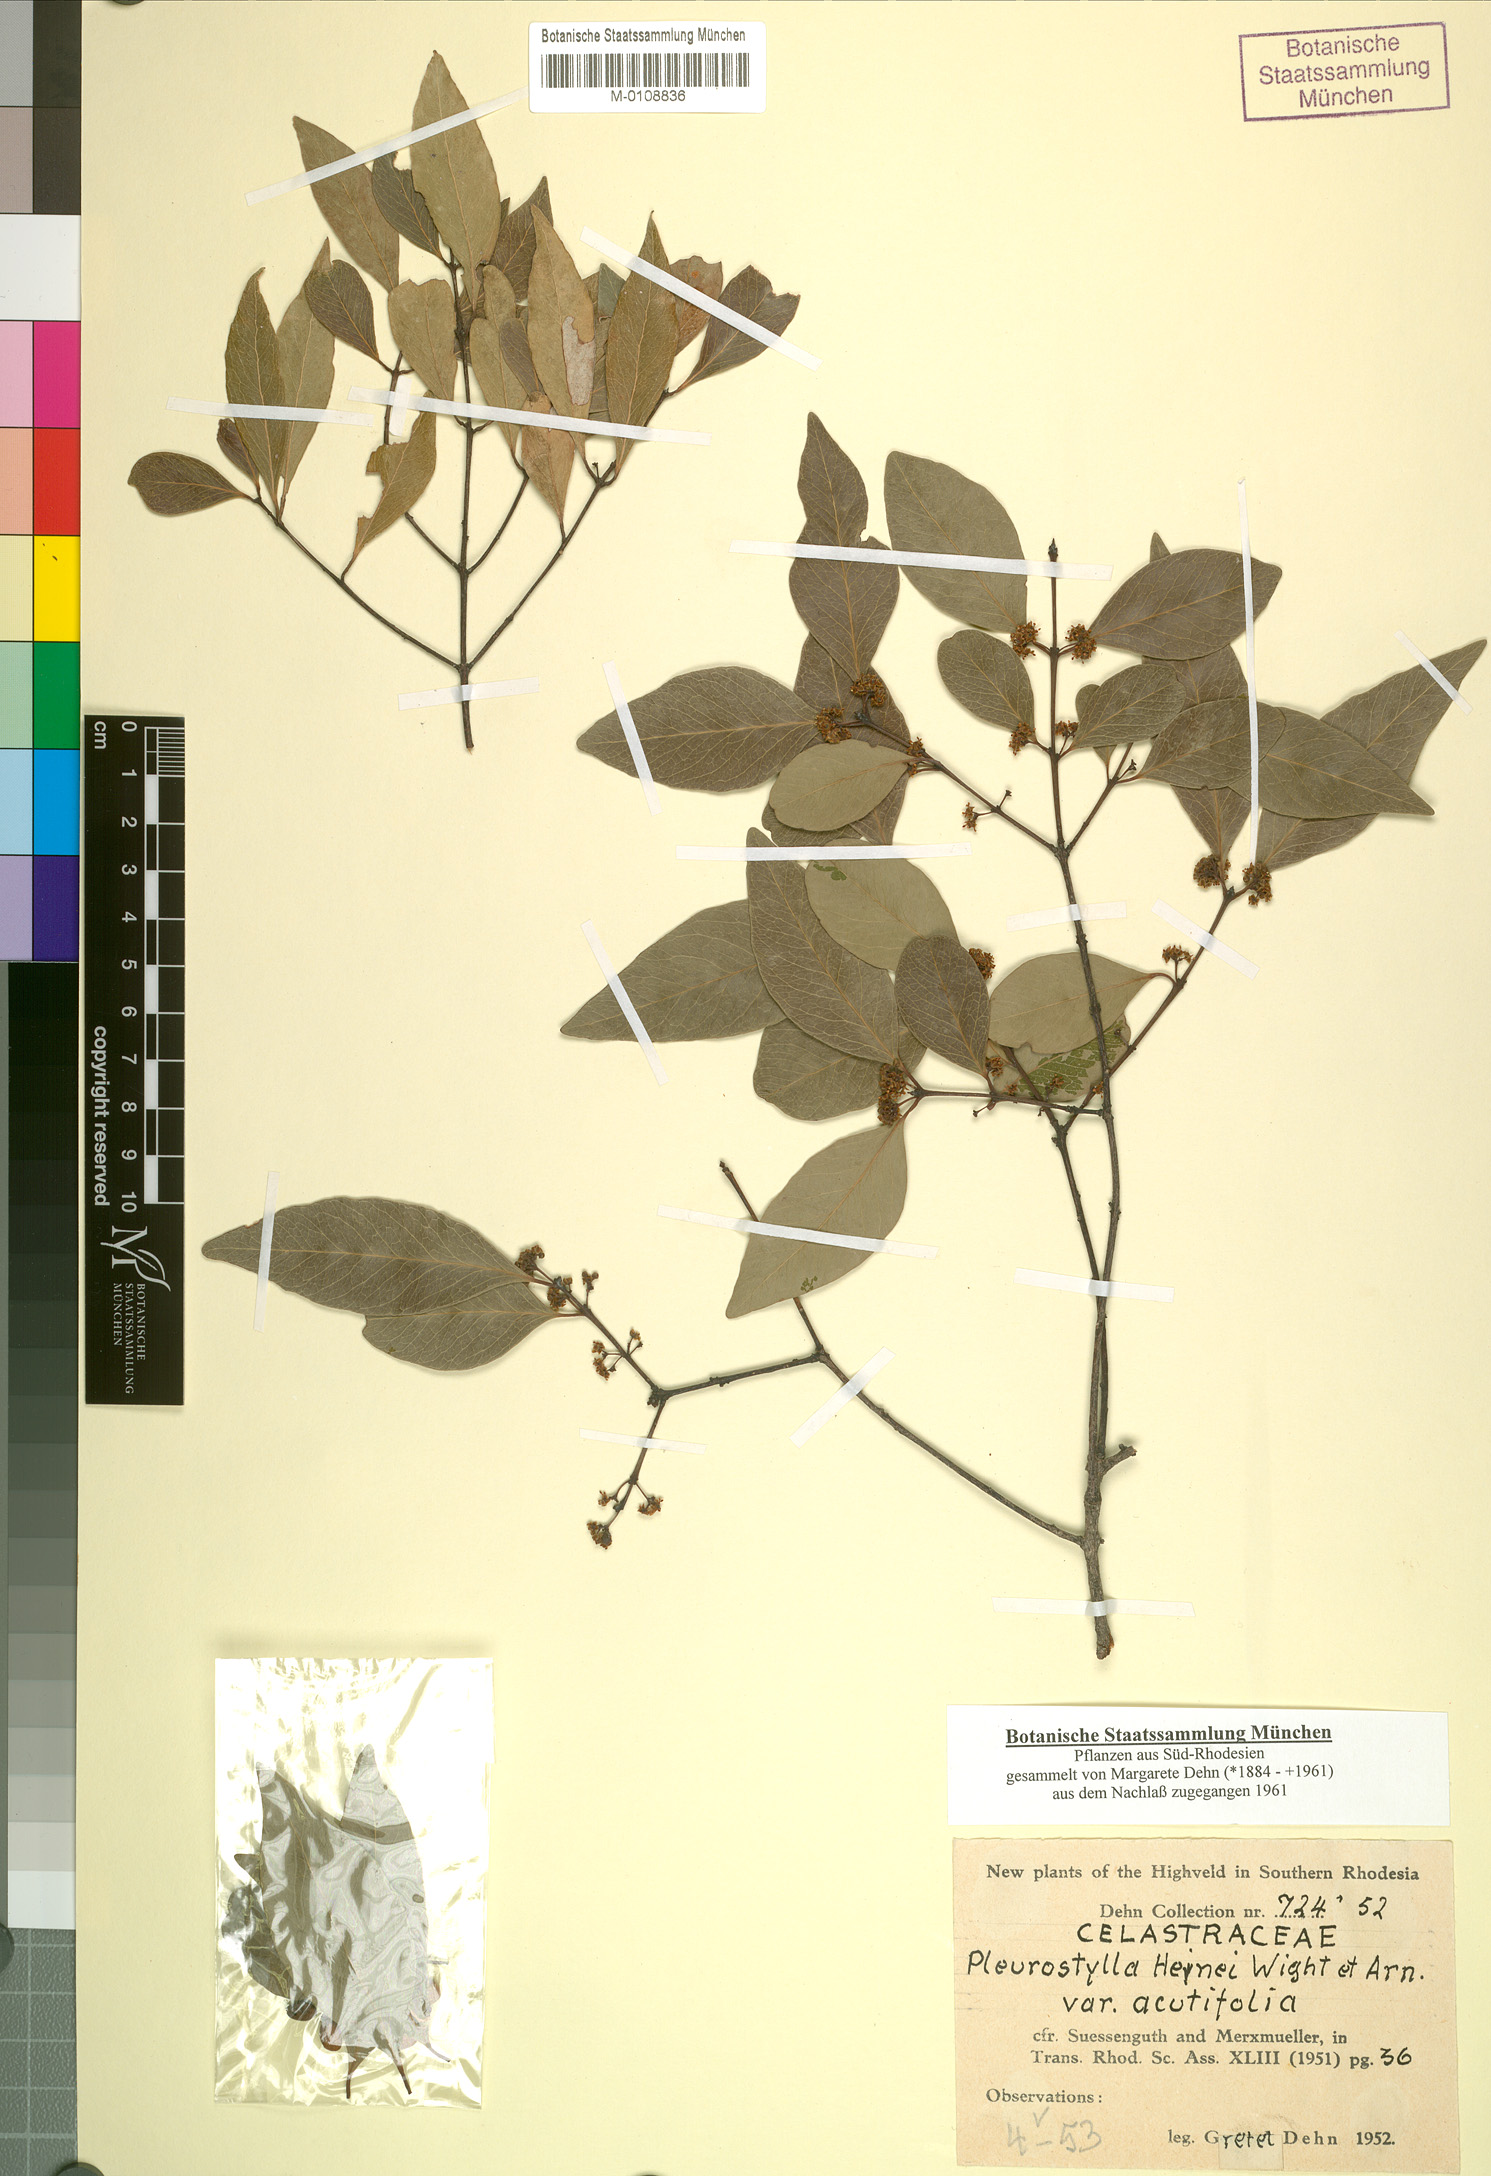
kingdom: Plantae
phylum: Tracheophyta
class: Magnoliopsida
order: Celastrales
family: Celastraceae
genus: Pleurostylia
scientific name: Pleurostylia africana
